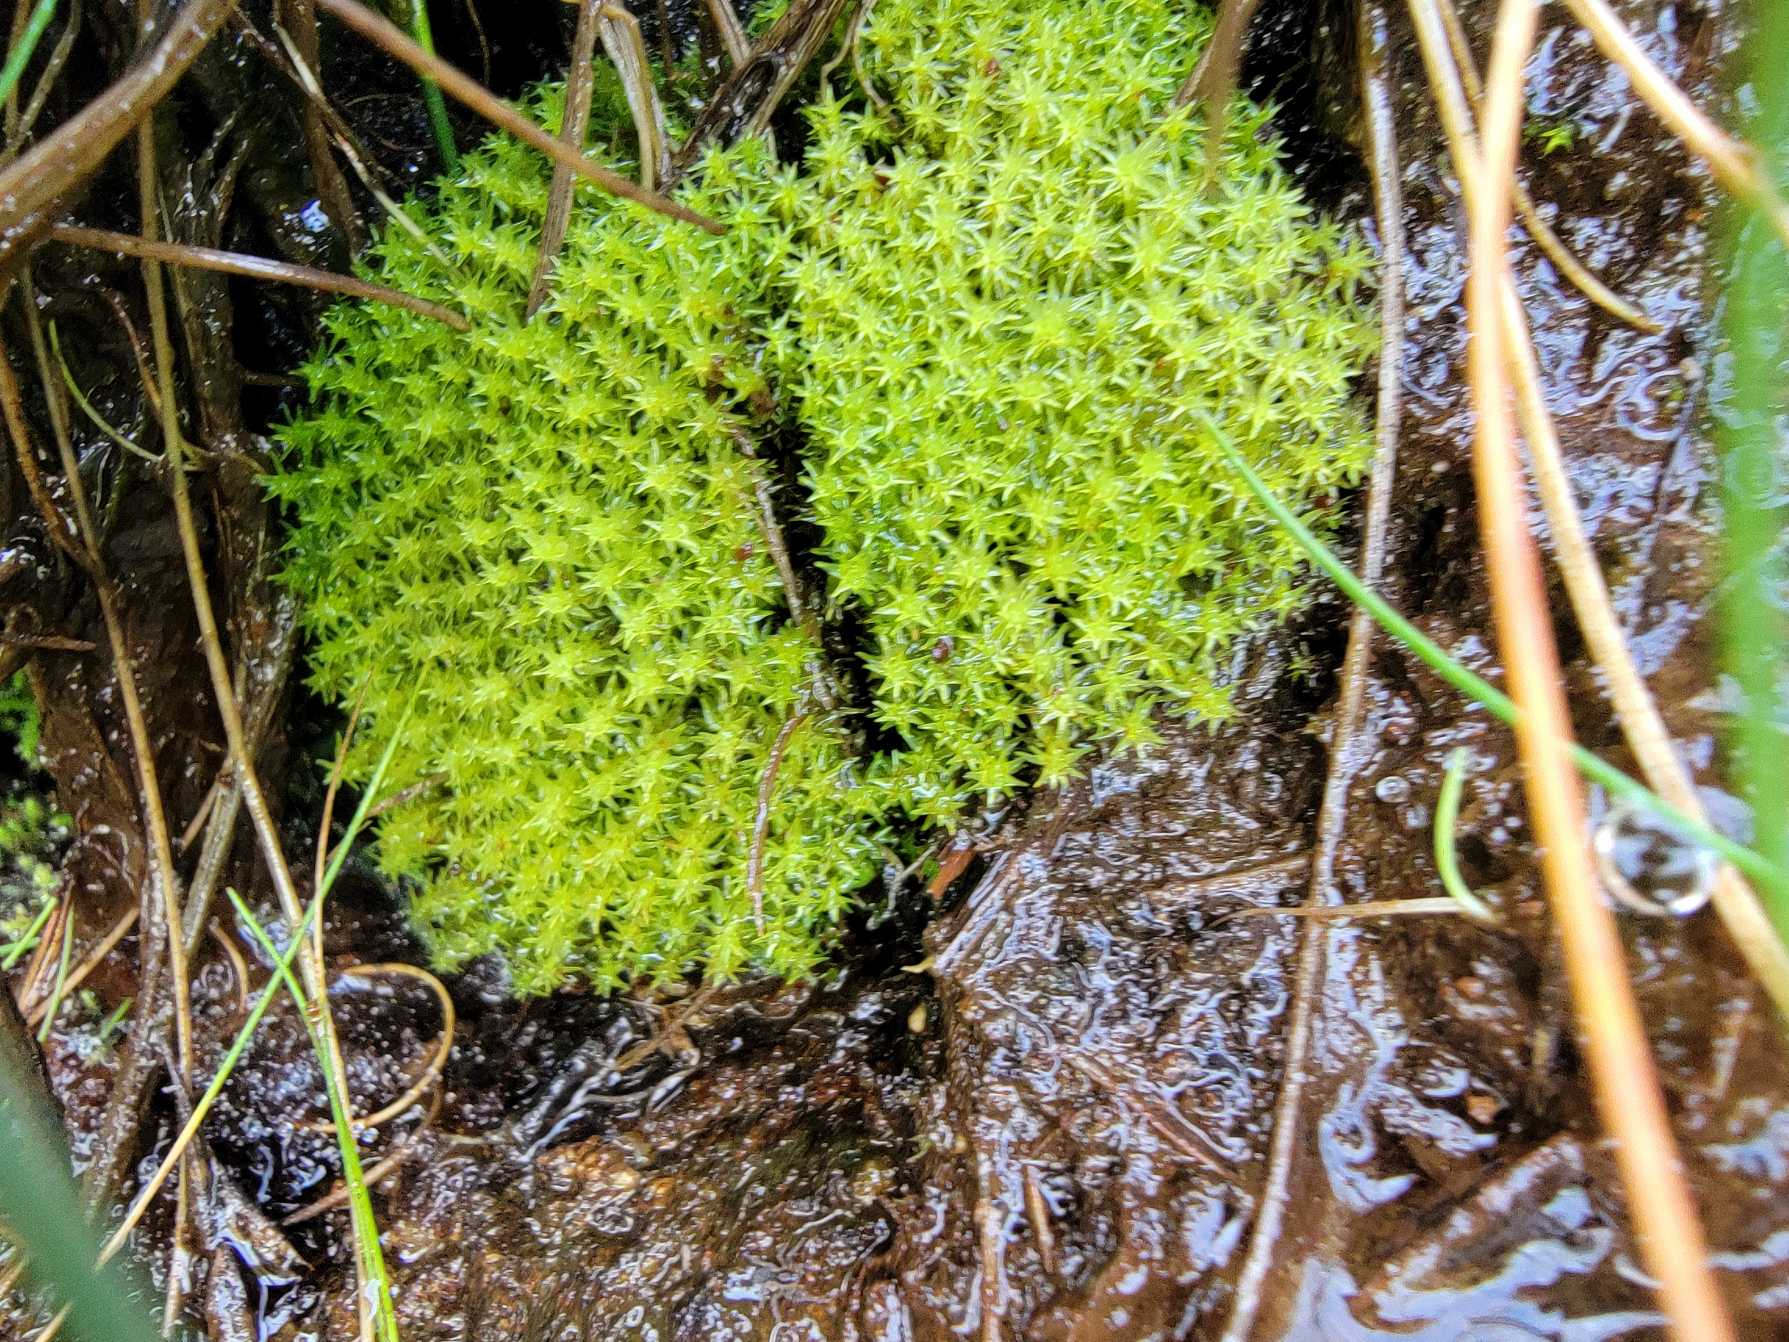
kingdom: Plantae
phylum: Bryophyta
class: Bryopsida
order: Dicranales
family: Aongstroemiaceae
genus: Diobelonella
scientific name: Diobelonella palustris
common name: Kæmpe skævkapsel
